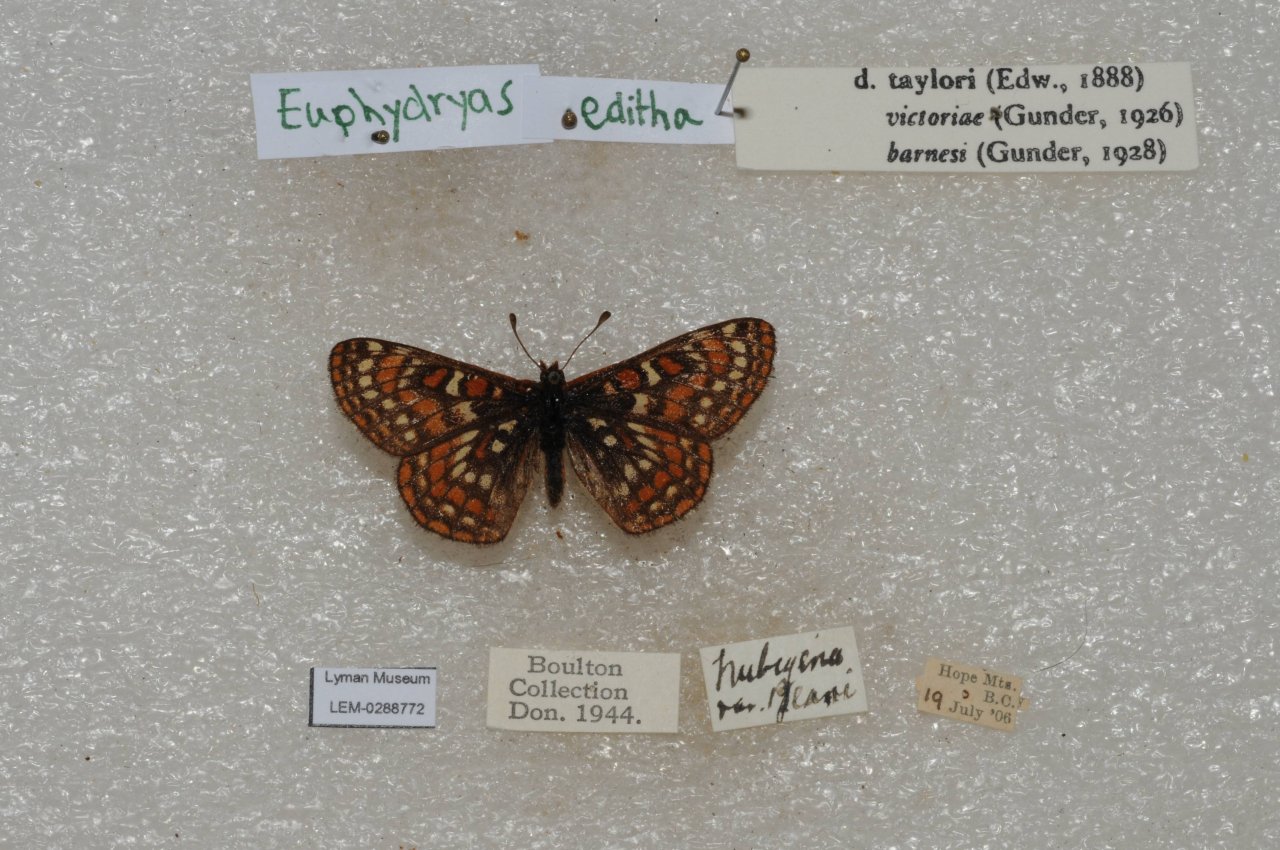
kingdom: Animalia
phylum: Arthropoda
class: Insecta
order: Lepidoptera
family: Nymphalidae
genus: Occidryas
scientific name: Occidryas editha
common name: Edith's Checkerspot
